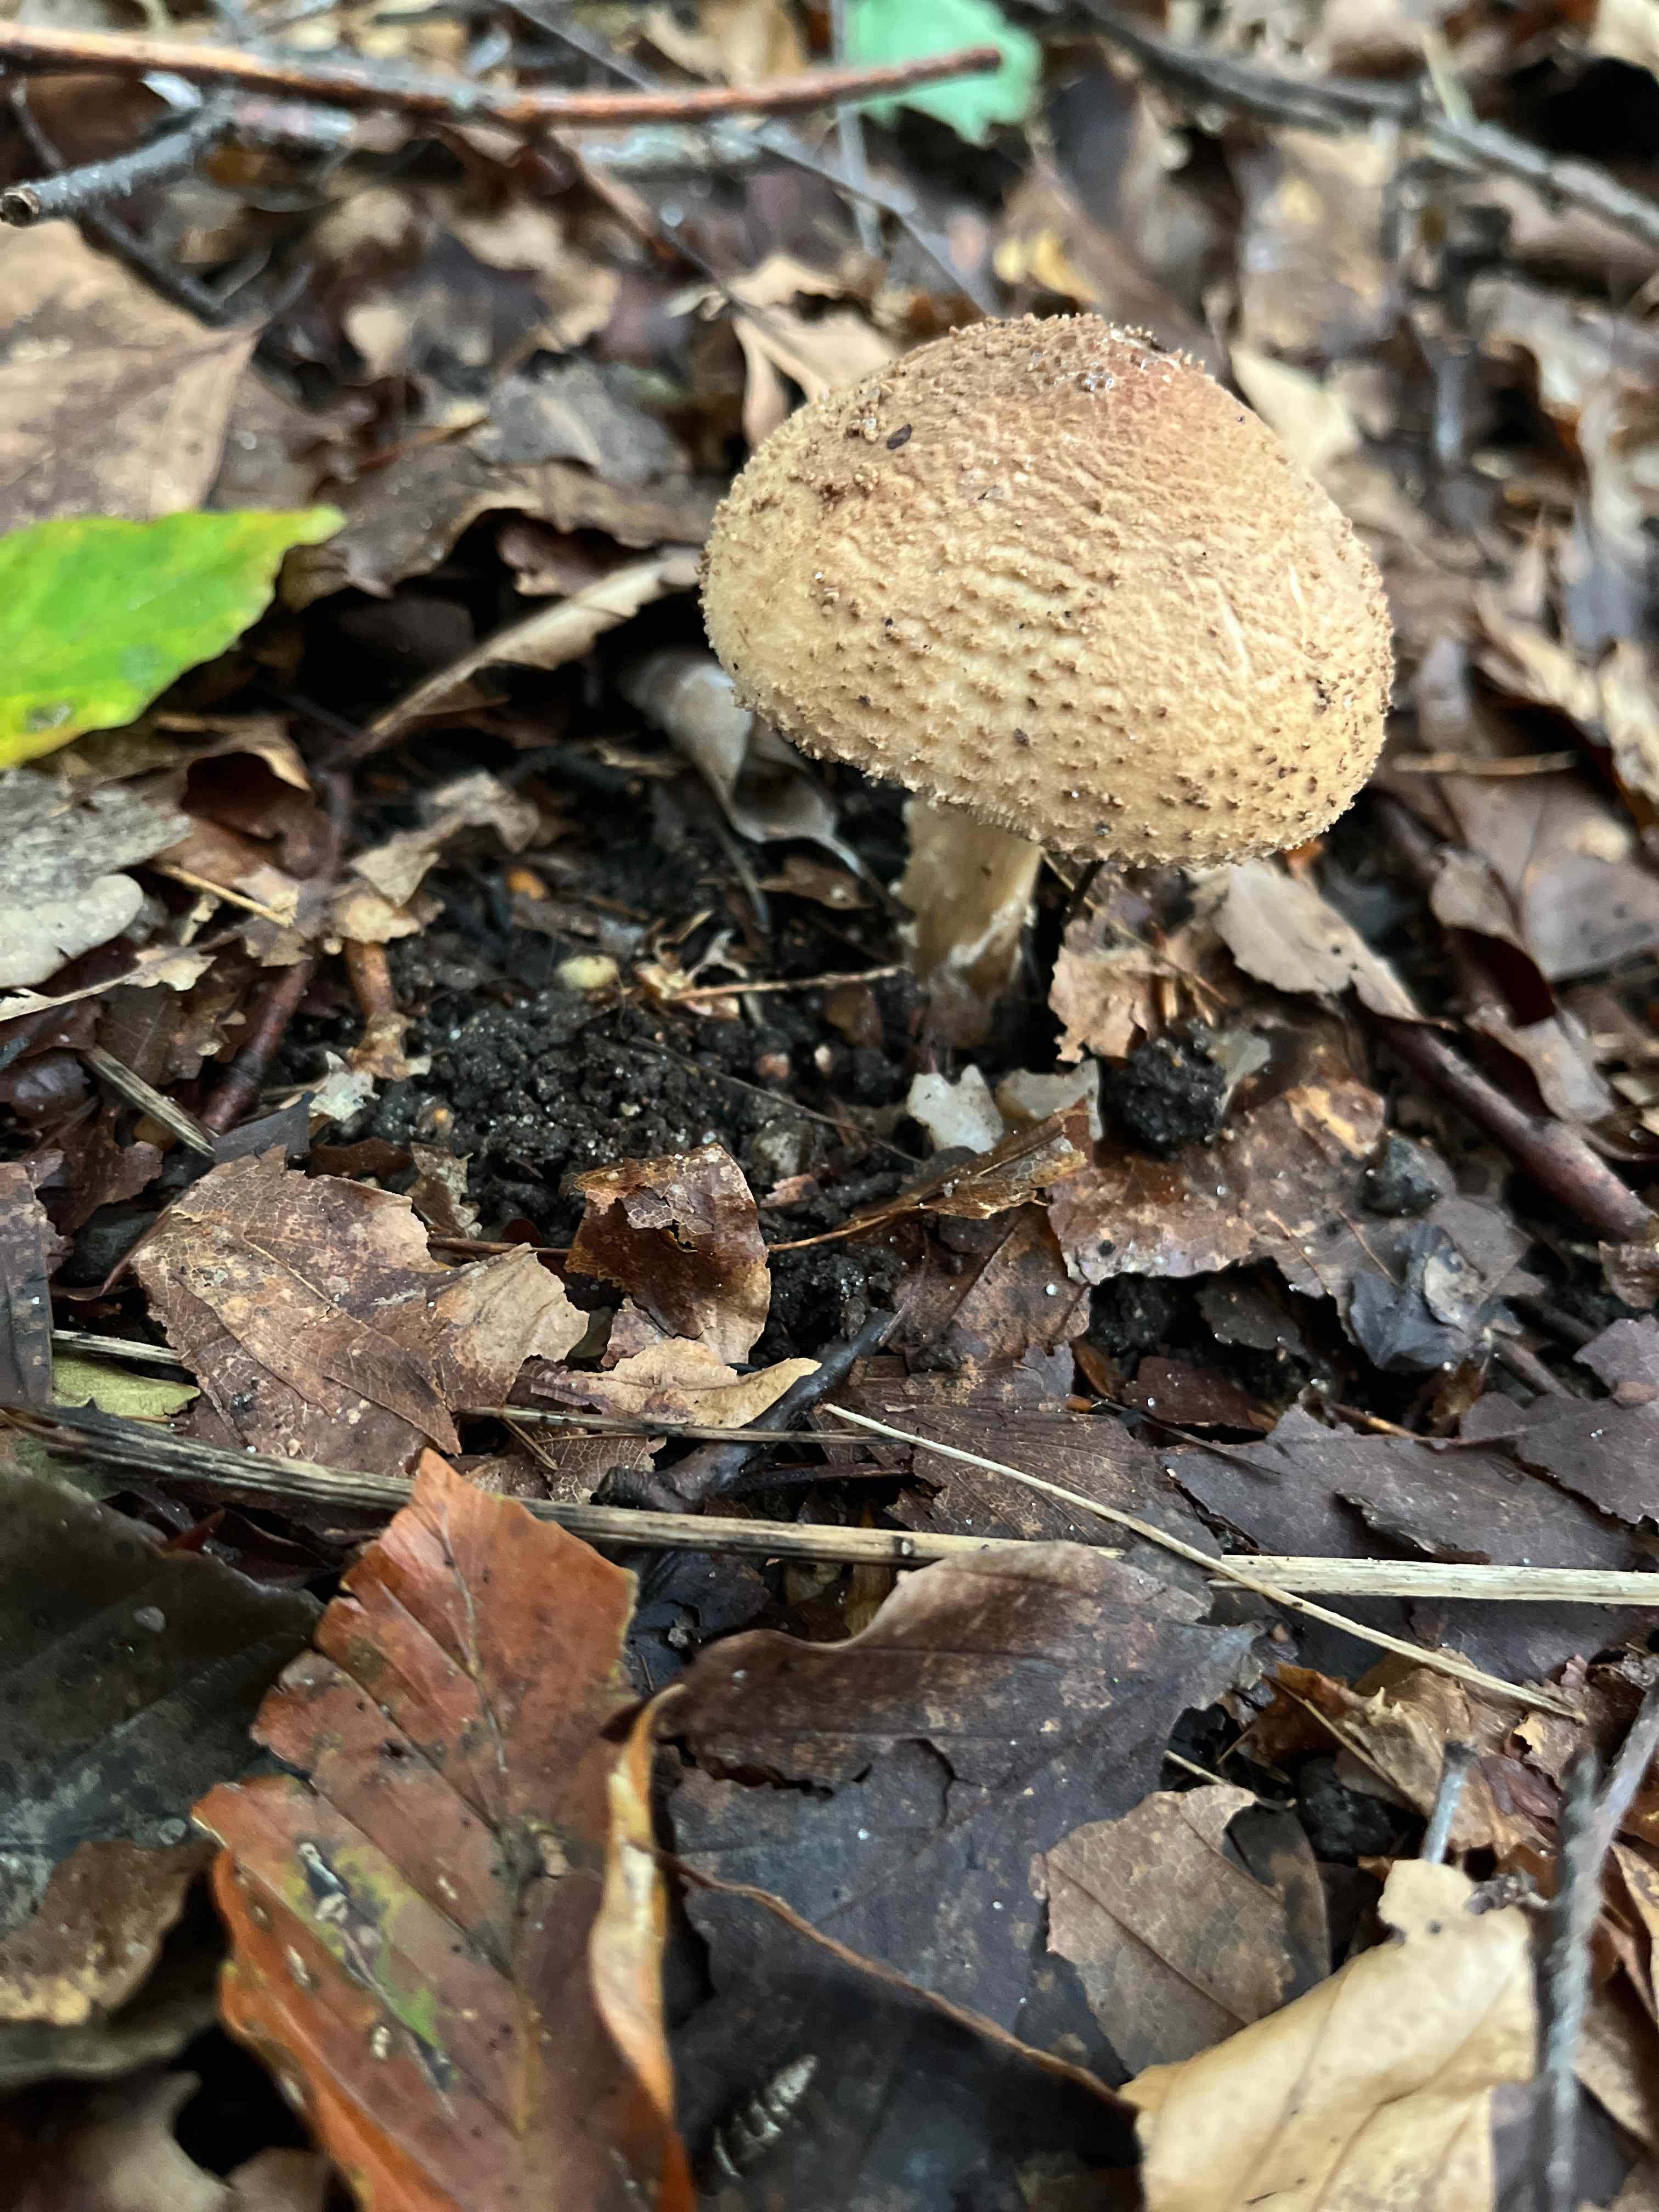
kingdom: Fungi
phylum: Basidiomycota
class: Agaricomycetes
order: Agaricales
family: Agaricaceae
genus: Echinoderma
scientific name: Echinoderma
